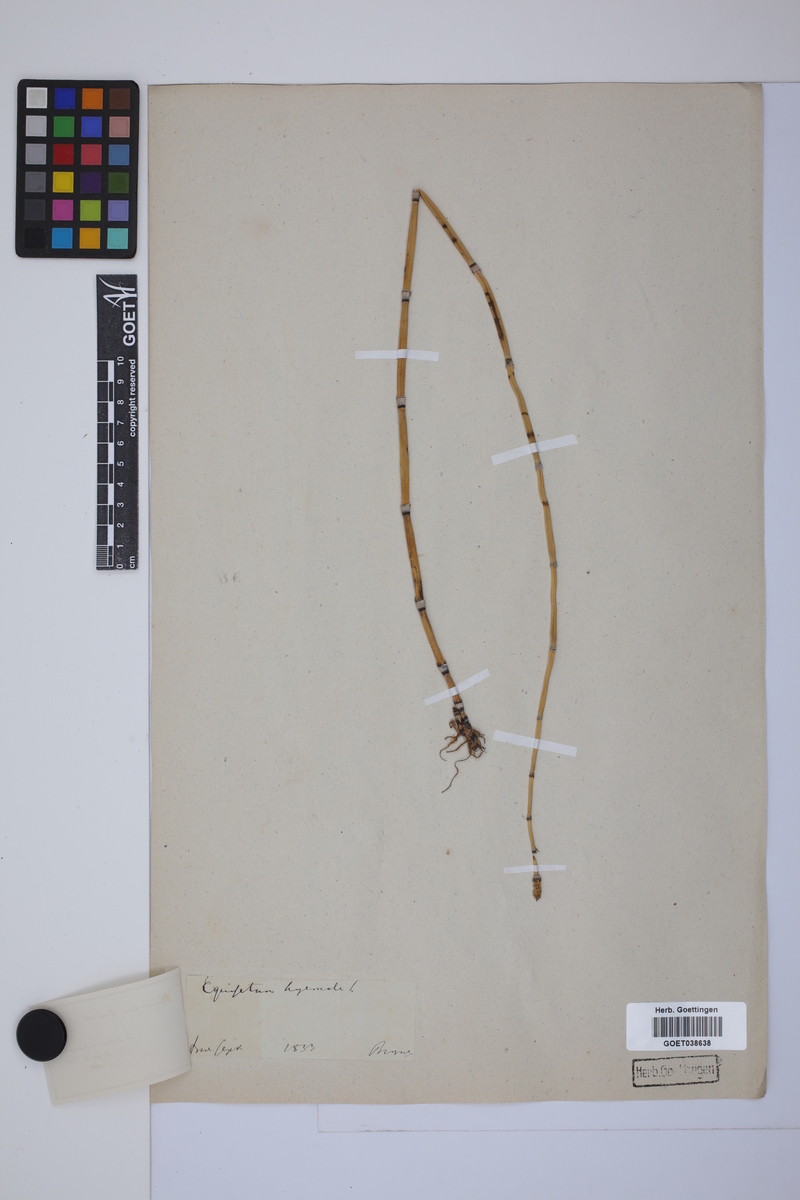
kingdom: Plantae
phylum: Tracheophyta
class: Polypodiopsida
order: Equisetales
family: Equisetaceae
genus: Equisetum
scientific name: Equisetum hyemale
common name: Rough horsetail
